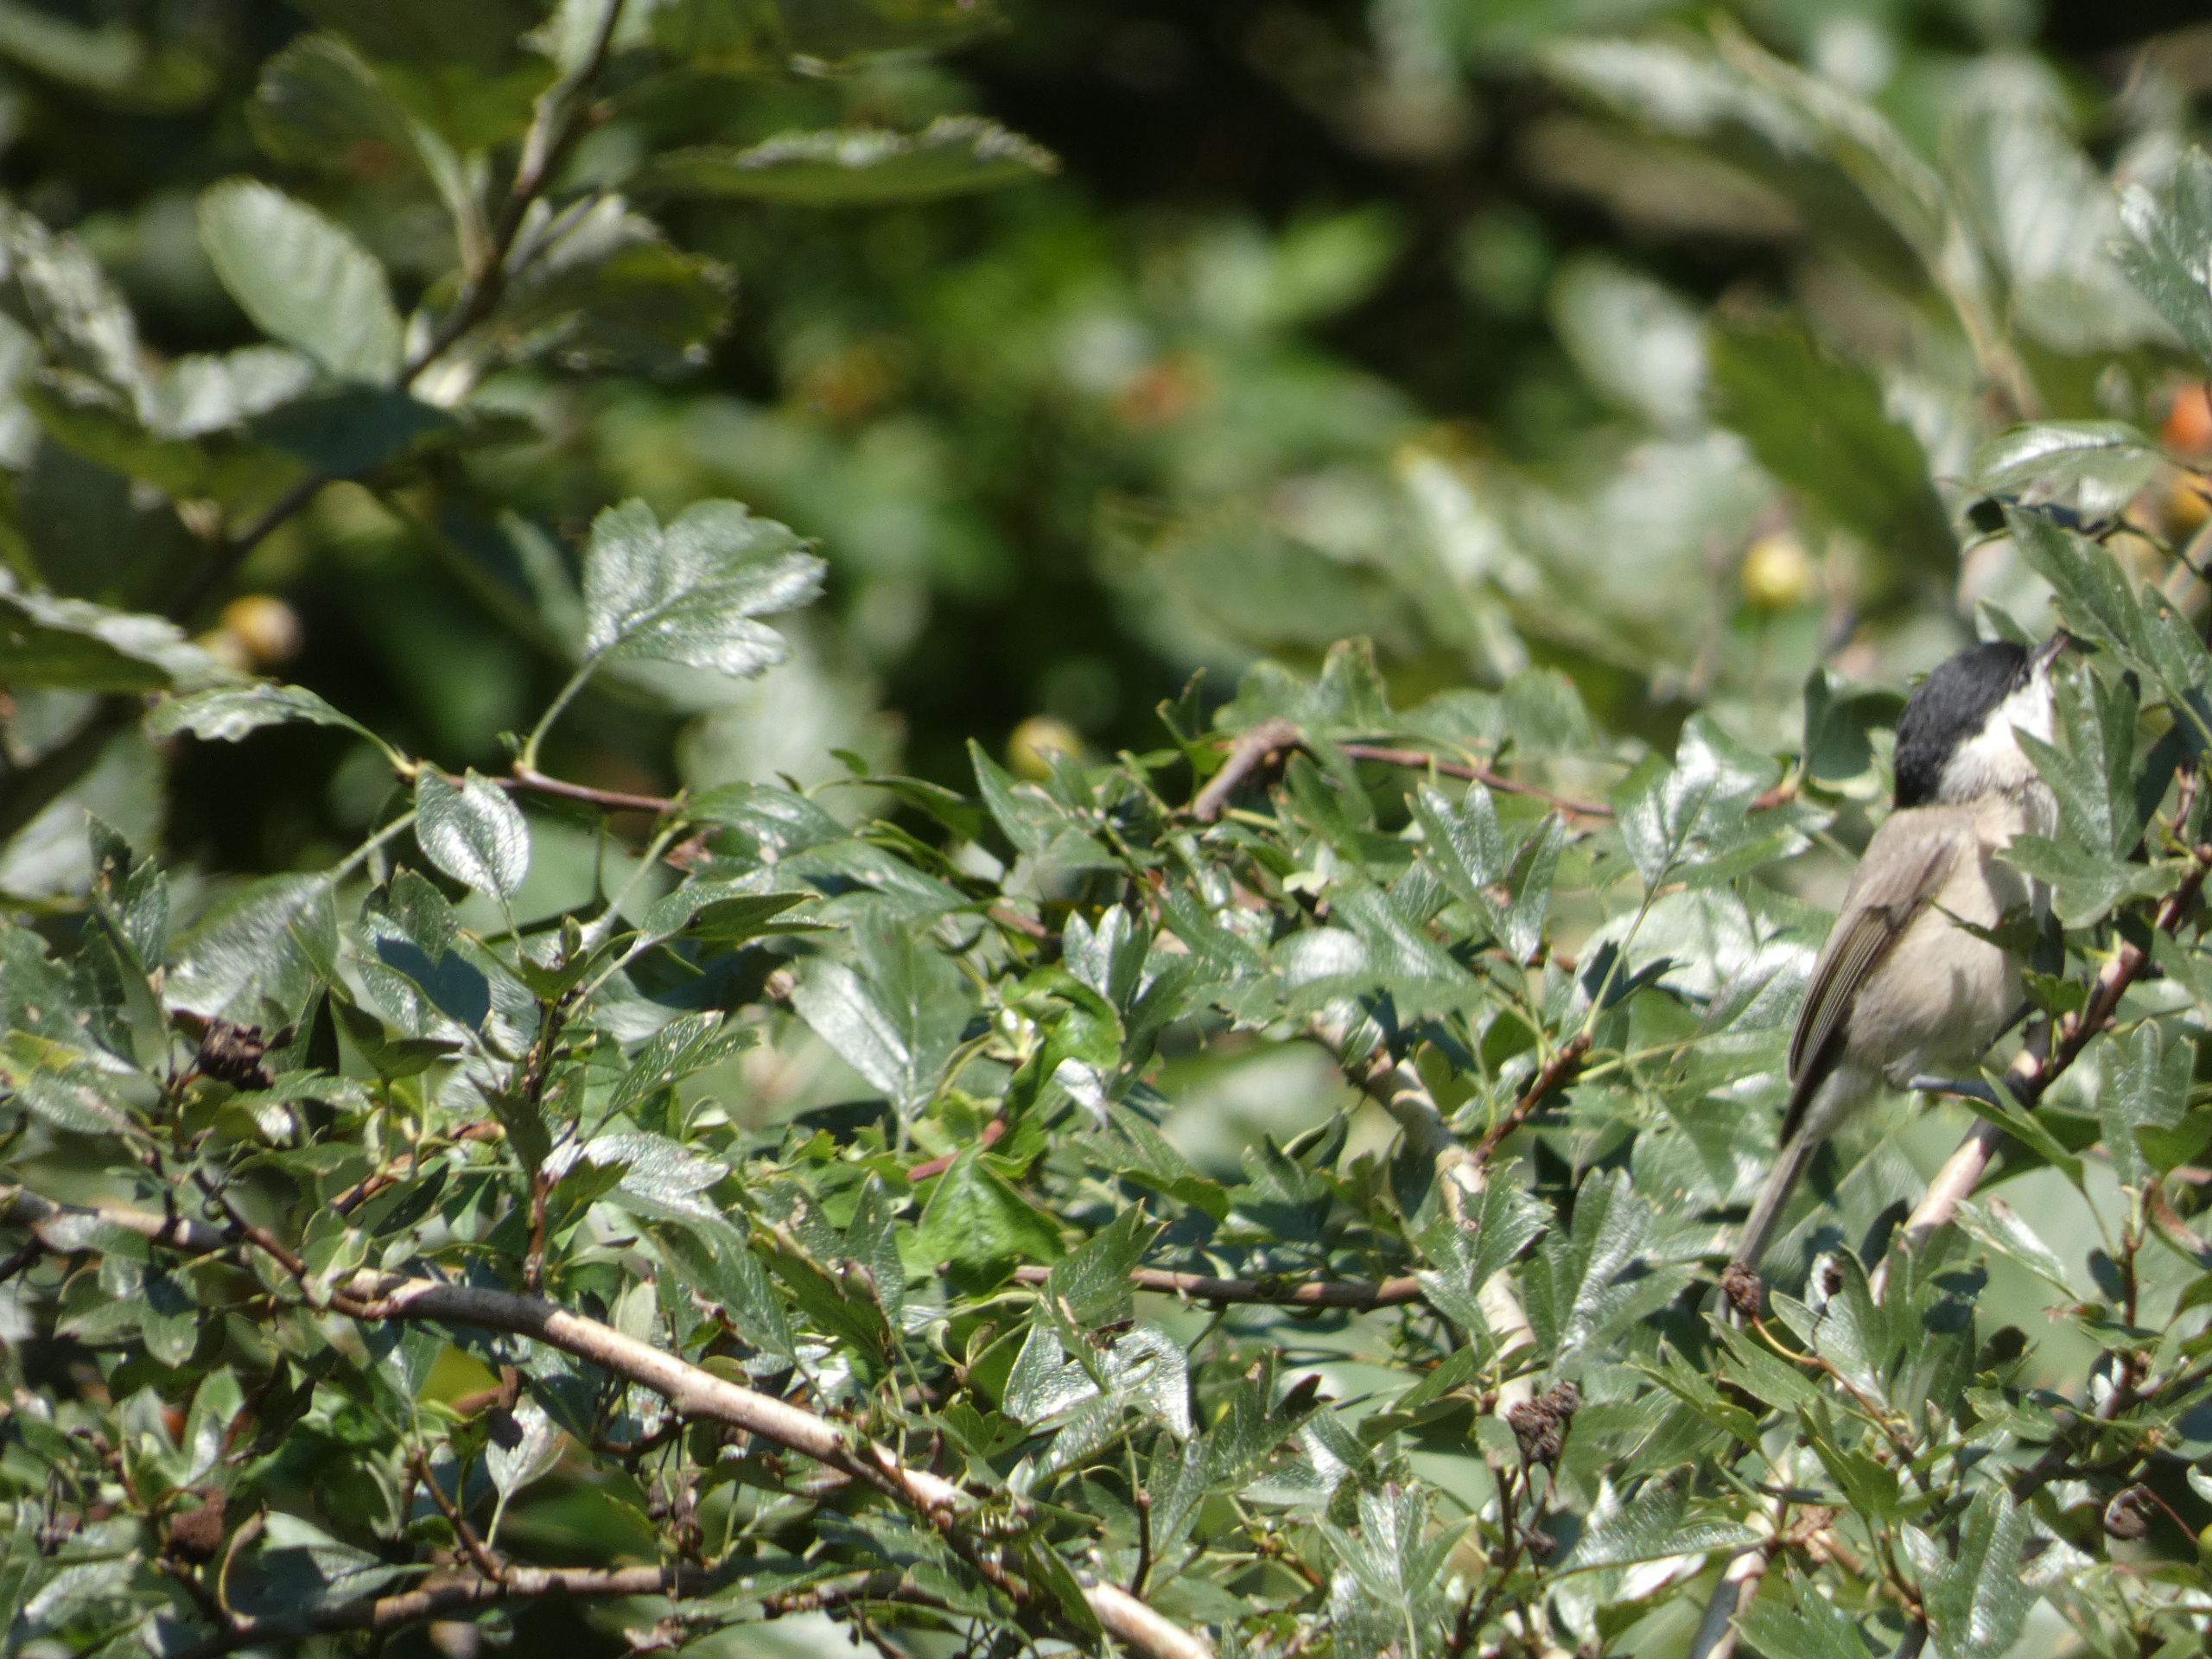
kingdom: Animalia
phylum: Chordata
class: Aves
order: Passeriformes
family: Paridae
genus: Poecile
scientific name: Poecile palustris
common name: Sumpmejse
